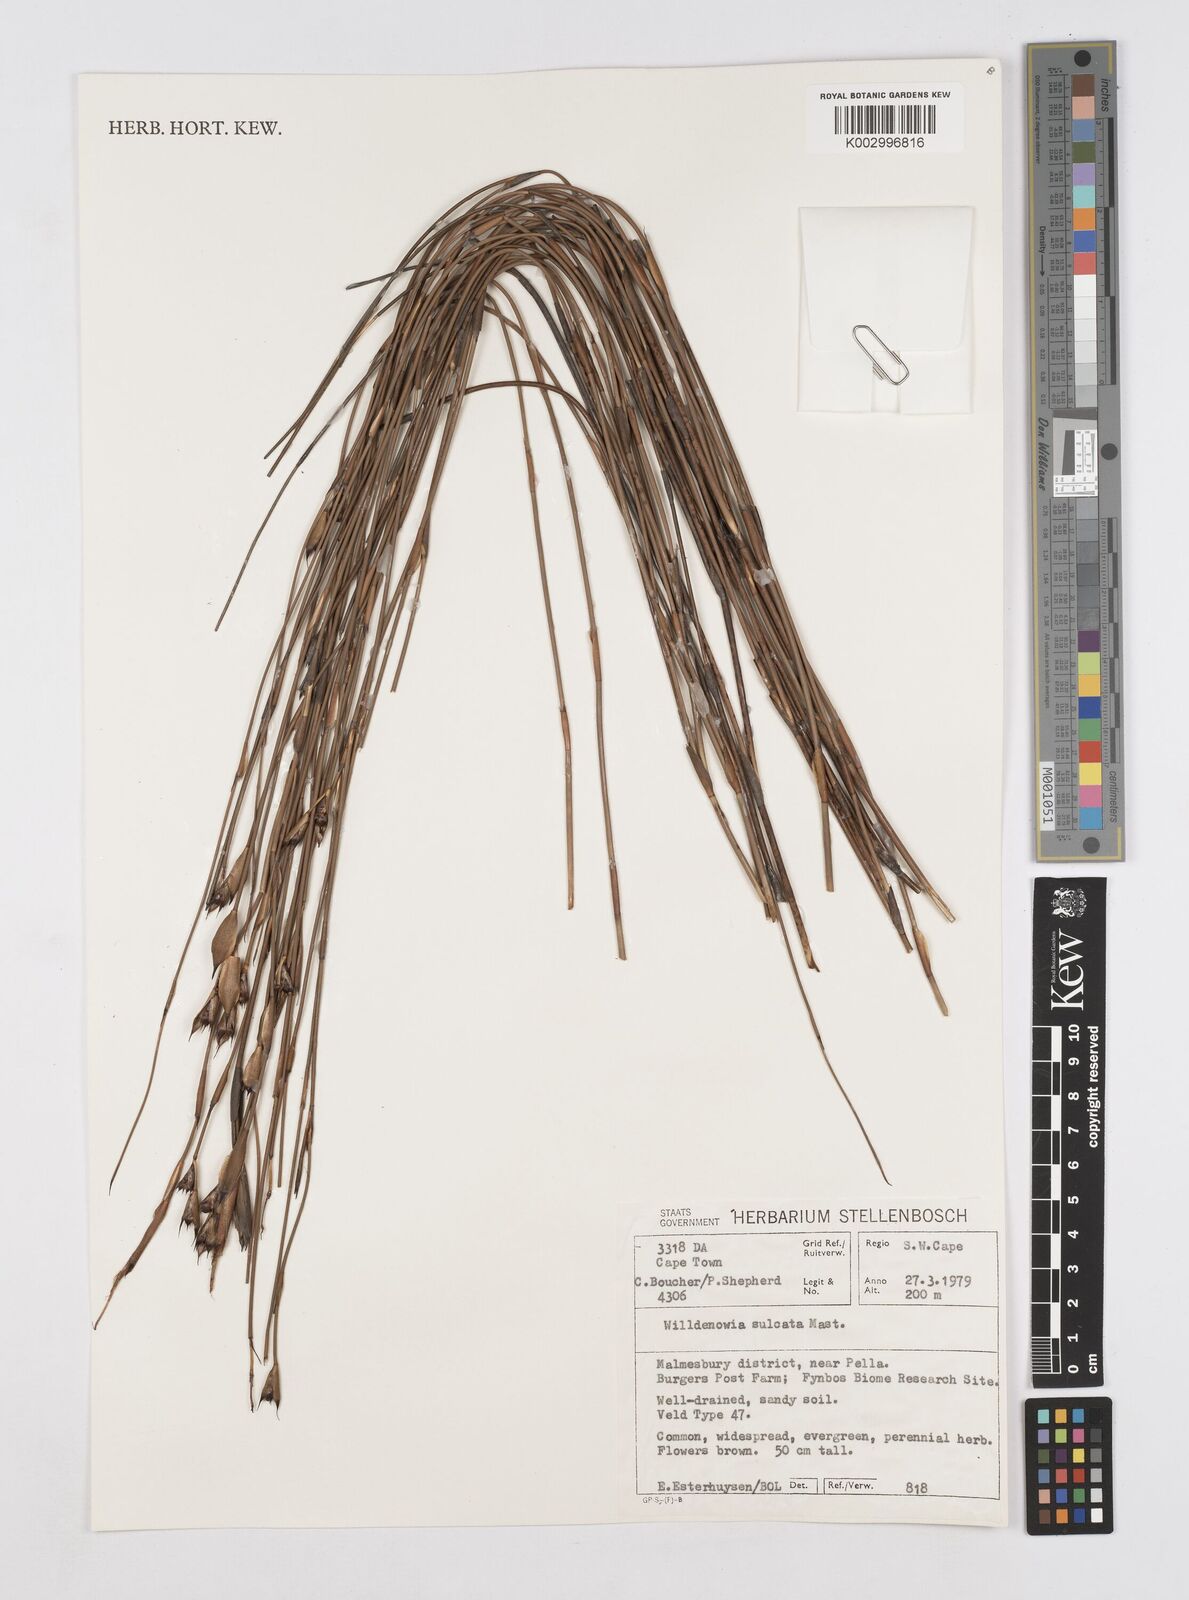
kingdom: Plantae
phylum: Tracheophyta
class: Liliopsida
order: Poales
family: Restionaceae
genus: Willdenowia
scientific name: Willdenowia sulcata
